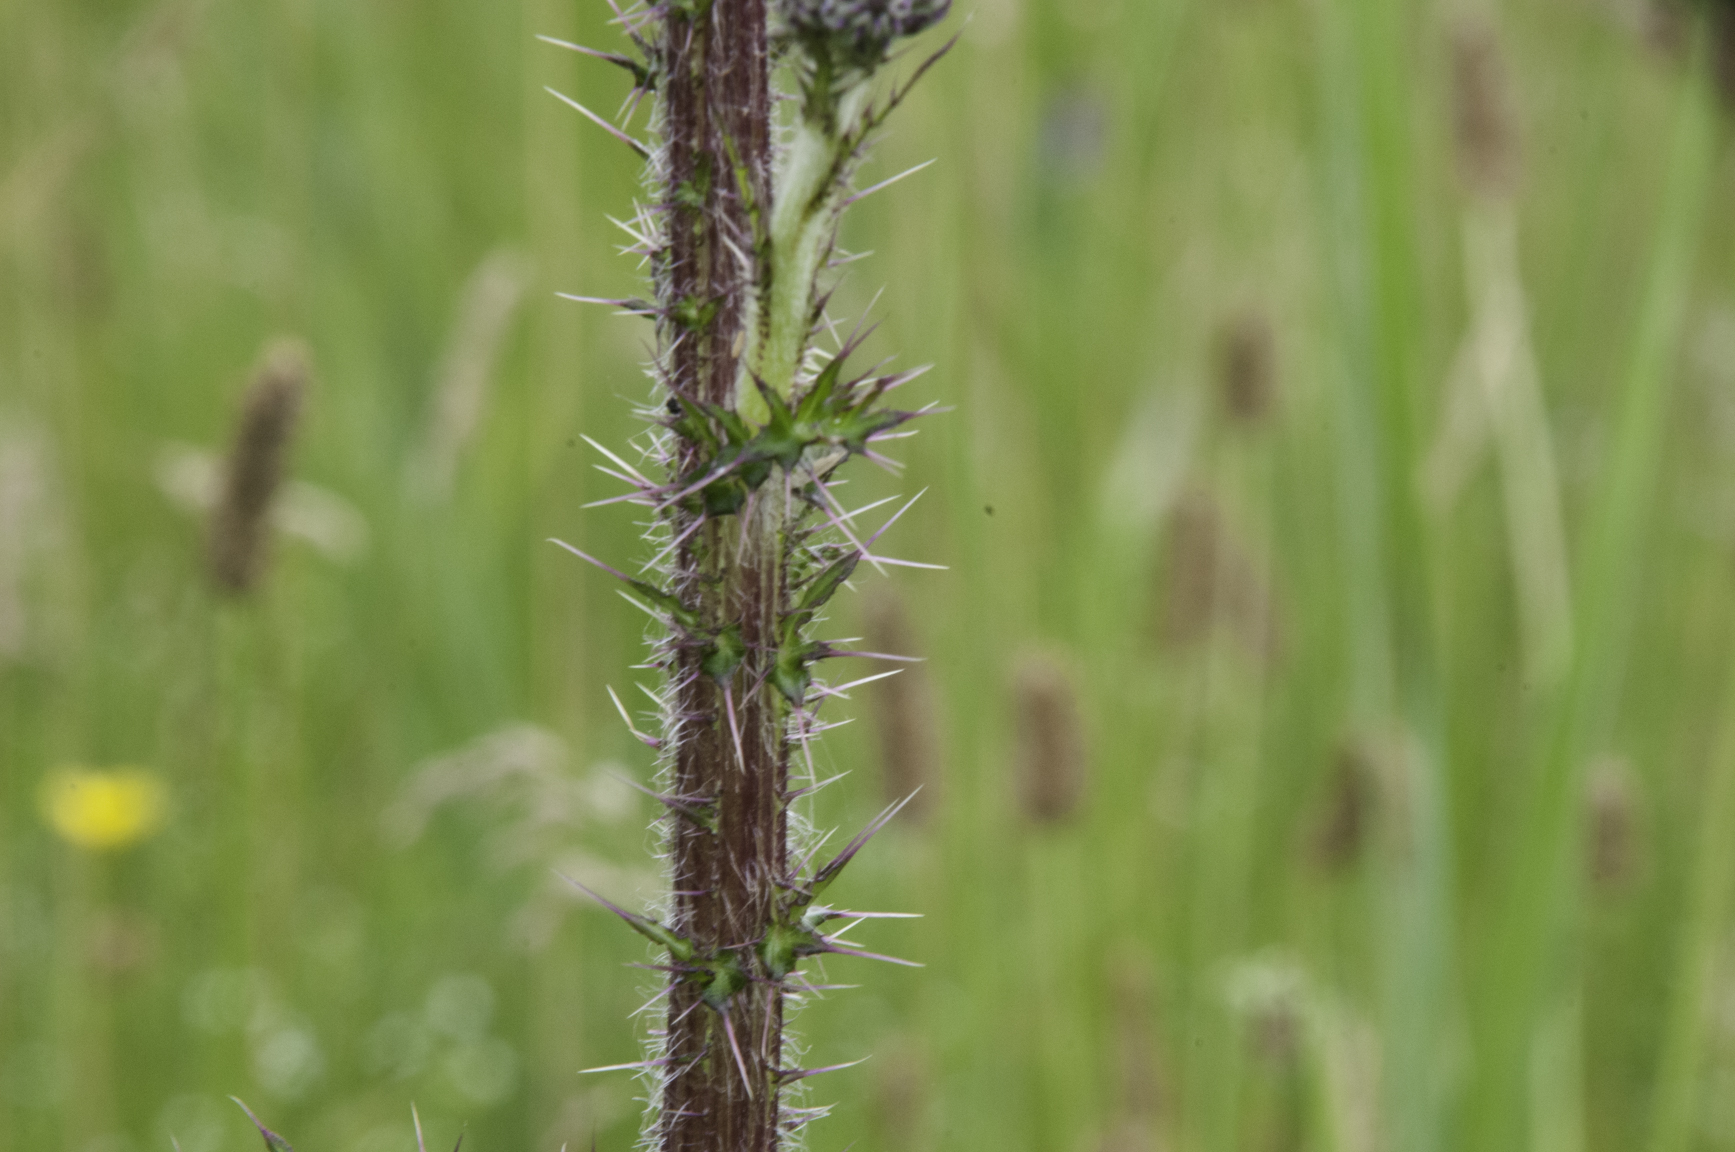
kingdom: Plantae
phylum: Tracheophyta
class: Magnoliopsida
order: Asterales
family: Asteraceae
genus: Cirsium
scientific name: Cirsium palustre
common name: Marsh thistle
